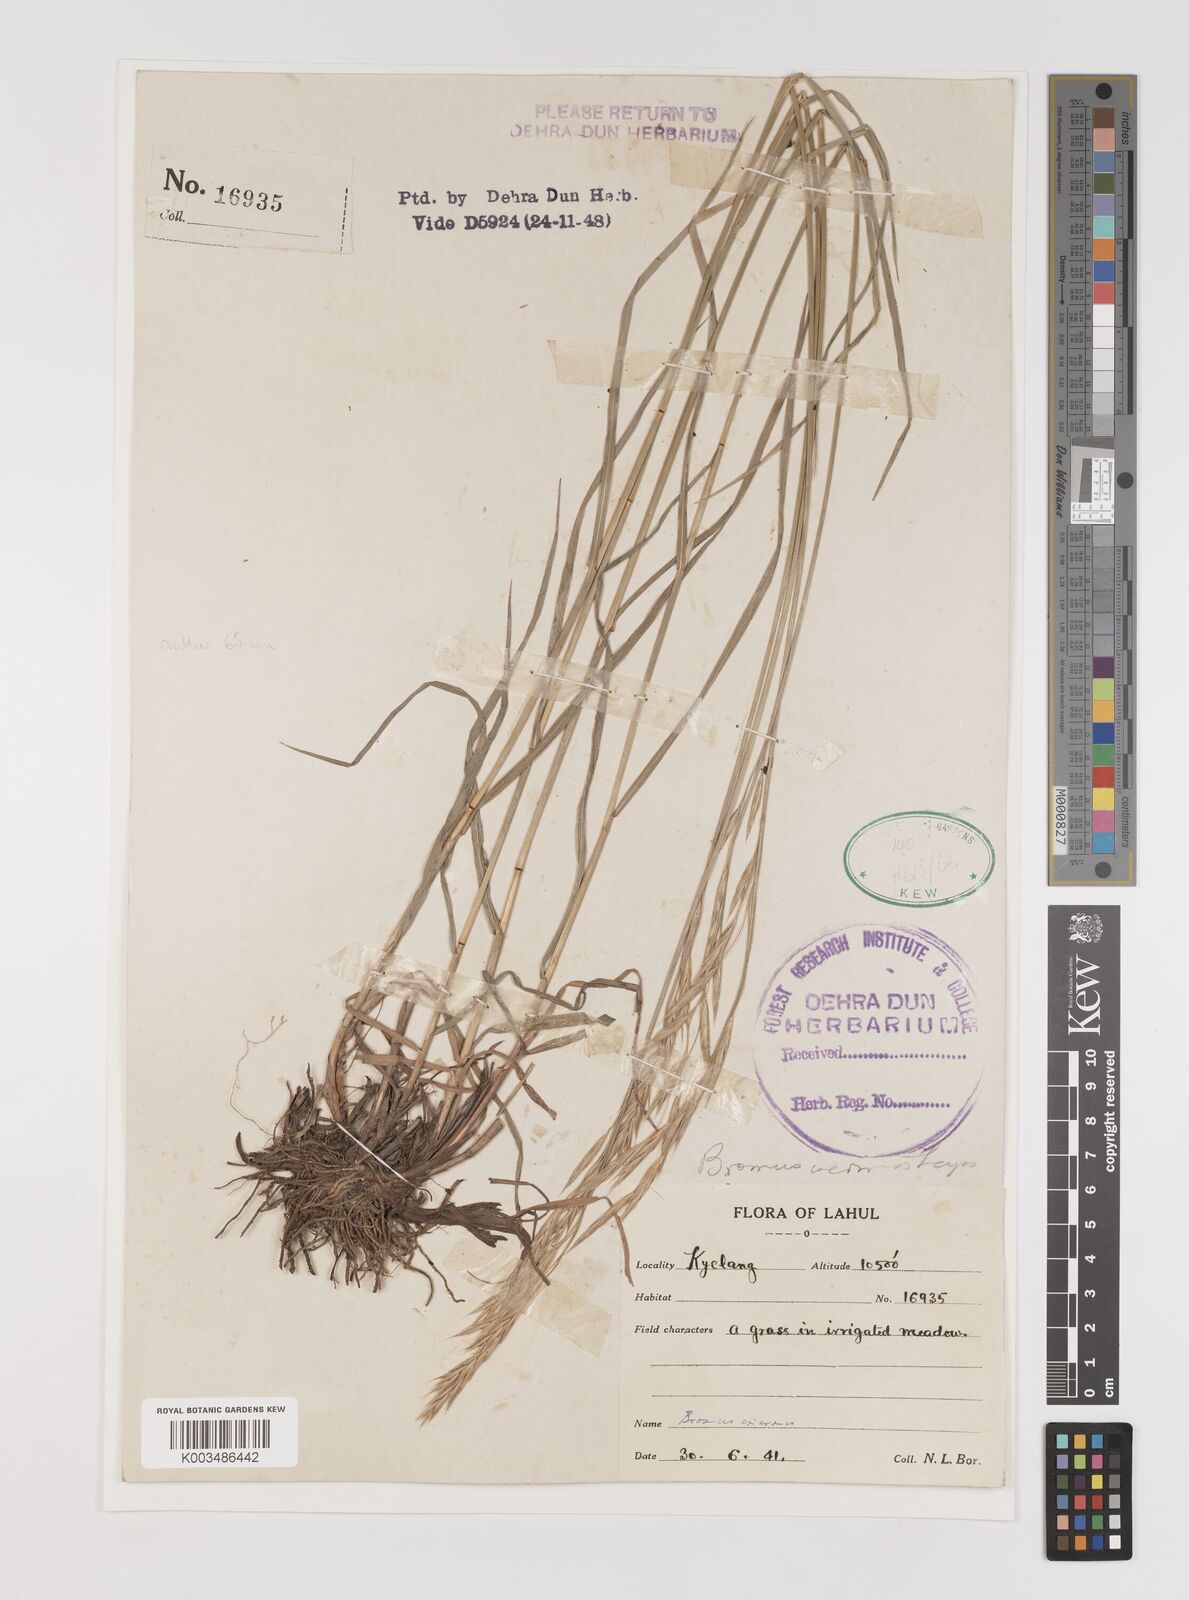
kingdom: Plantae
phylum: Tracheophyta
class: Liliopsida
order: Poales
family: Poaceae
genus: Bromus
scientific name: Bromus confinis
